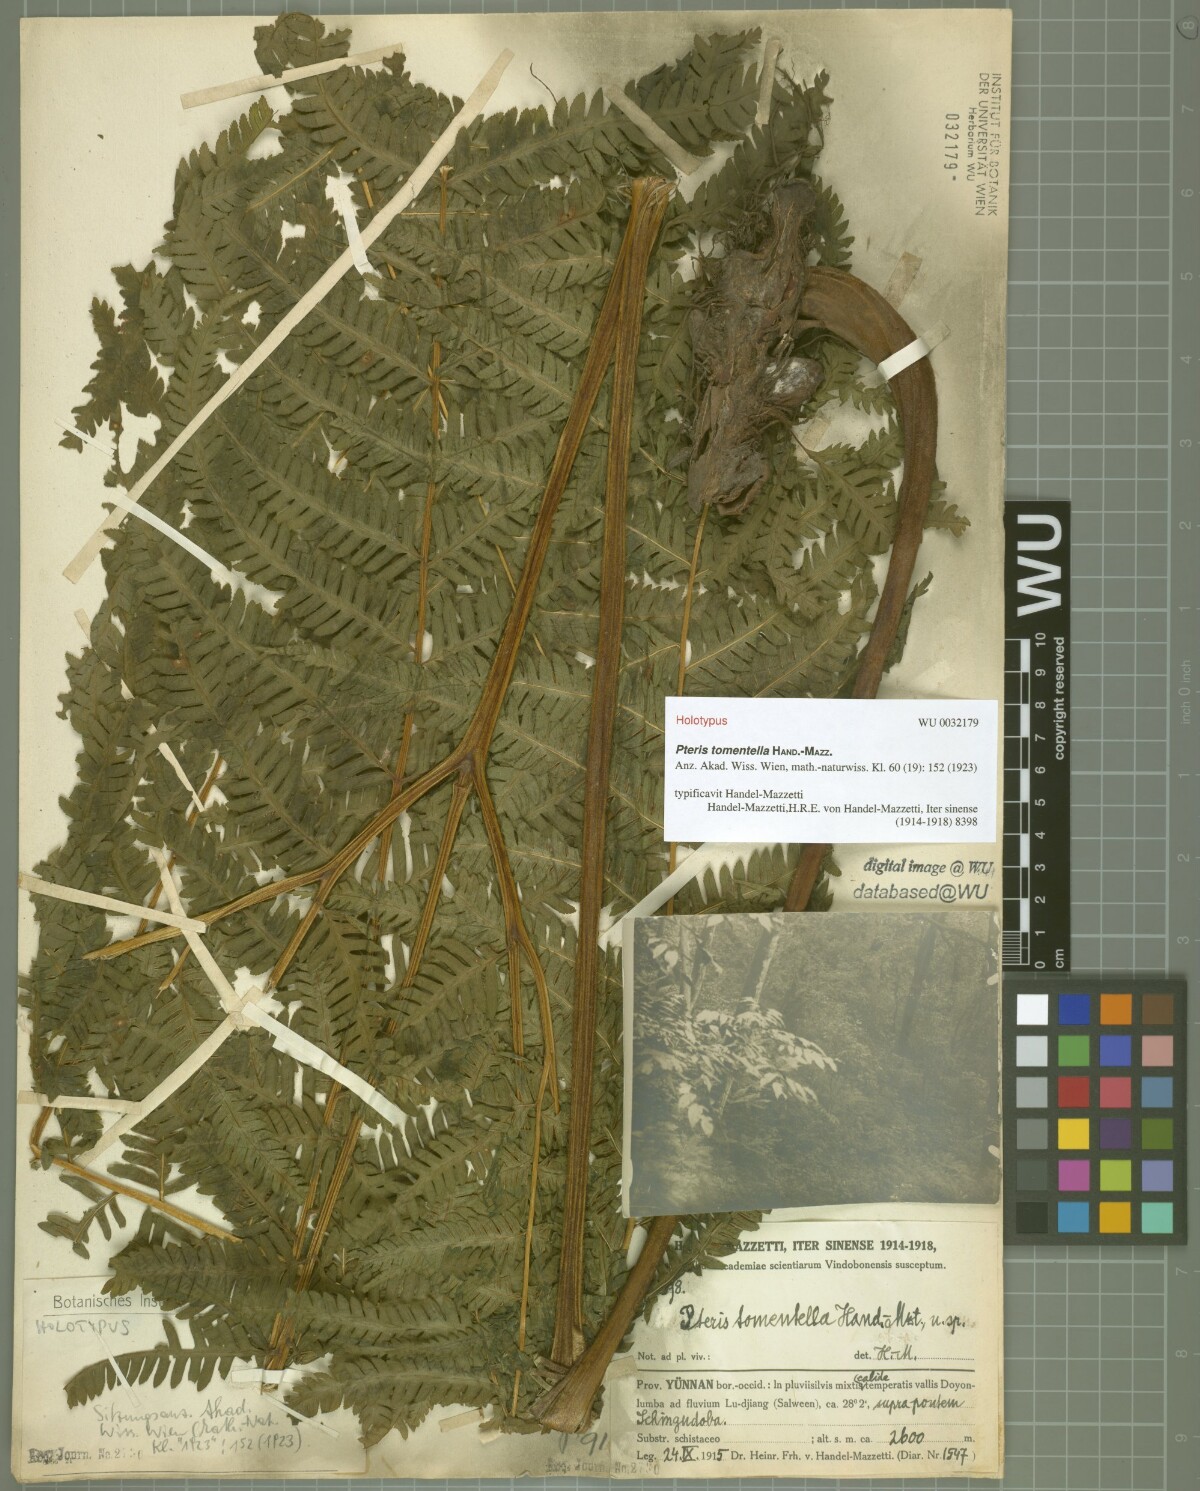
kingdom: Plantae
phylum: Tracheophyta
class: Polypodiopsida
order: Polypodiales
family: Pteridaceae
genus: Pteris
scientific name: Pteris longipes
